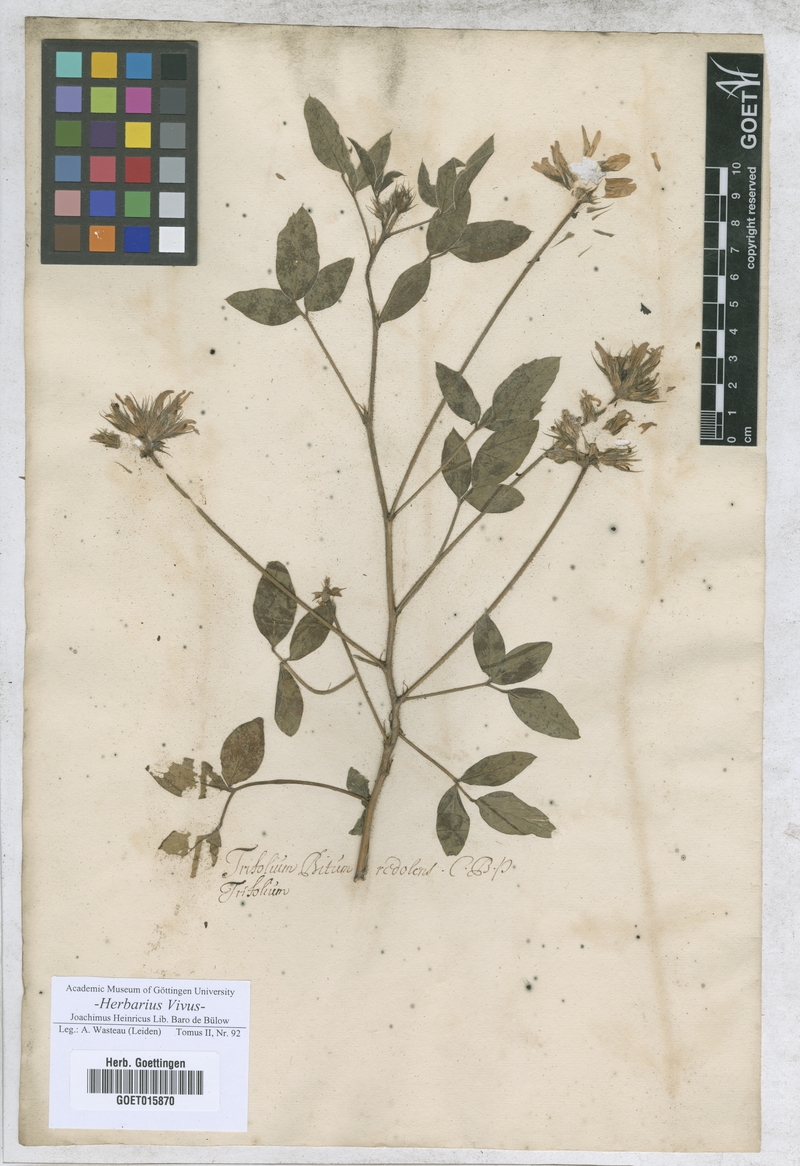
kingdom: Plantae
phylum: Tracheophyta
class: Magnoliopsida
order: Fabales
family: Fabaceae
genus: Trifolium
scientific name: Trifolium
